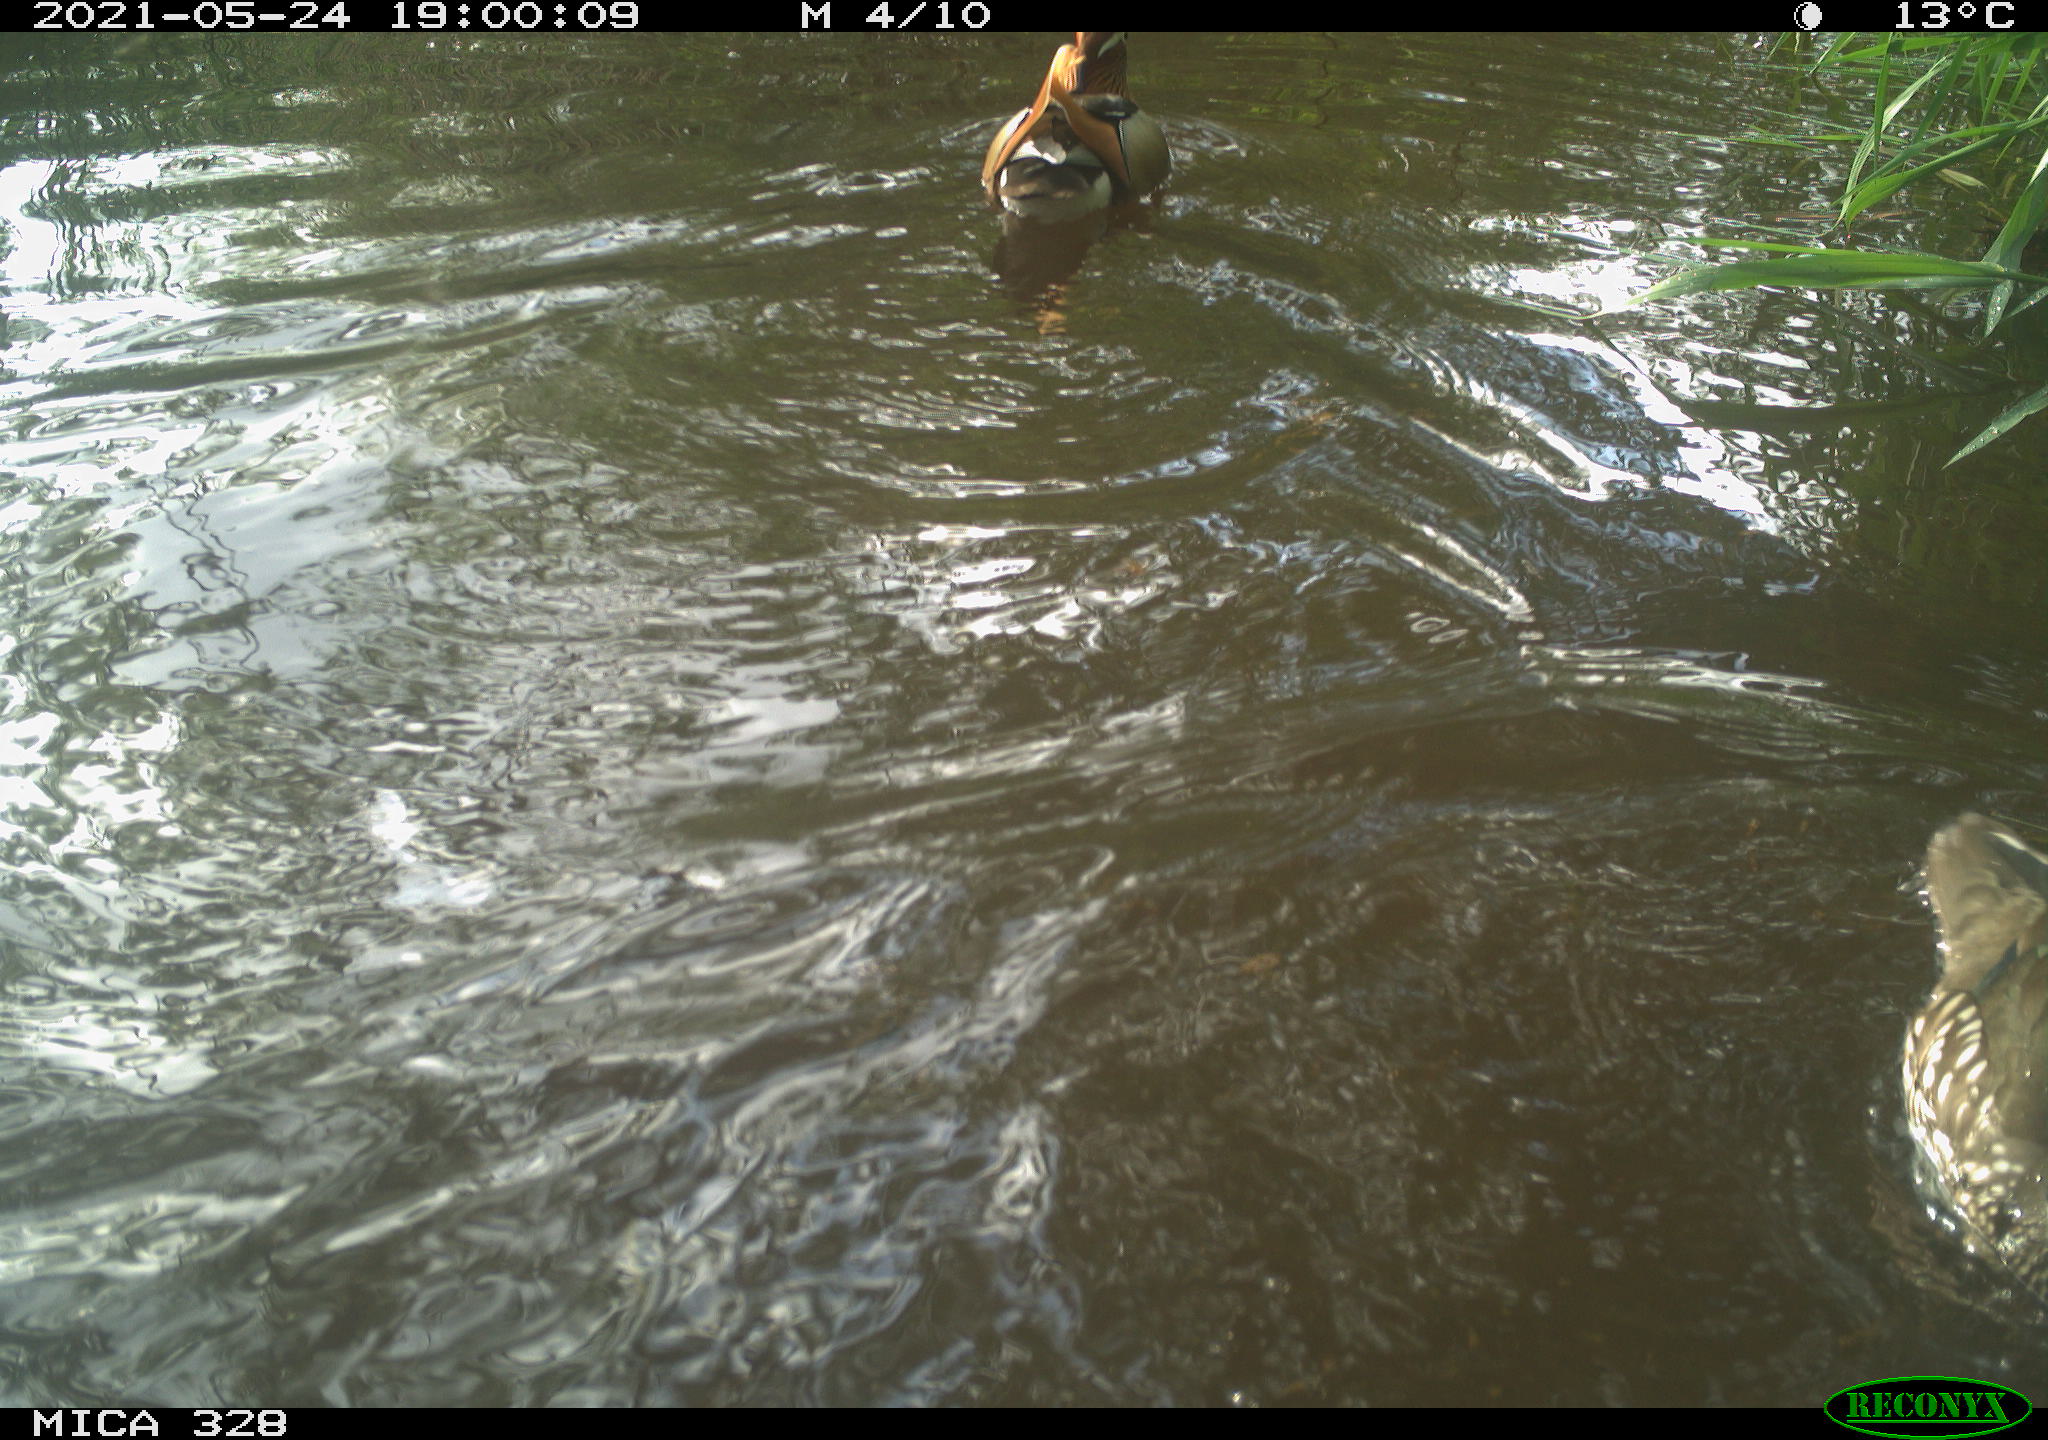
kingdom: Animalia
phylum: Chordata
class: Aves
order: Anseriformes
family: Anatidae
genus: Aix
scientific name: Aix galericulata
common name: Mandarin duck
